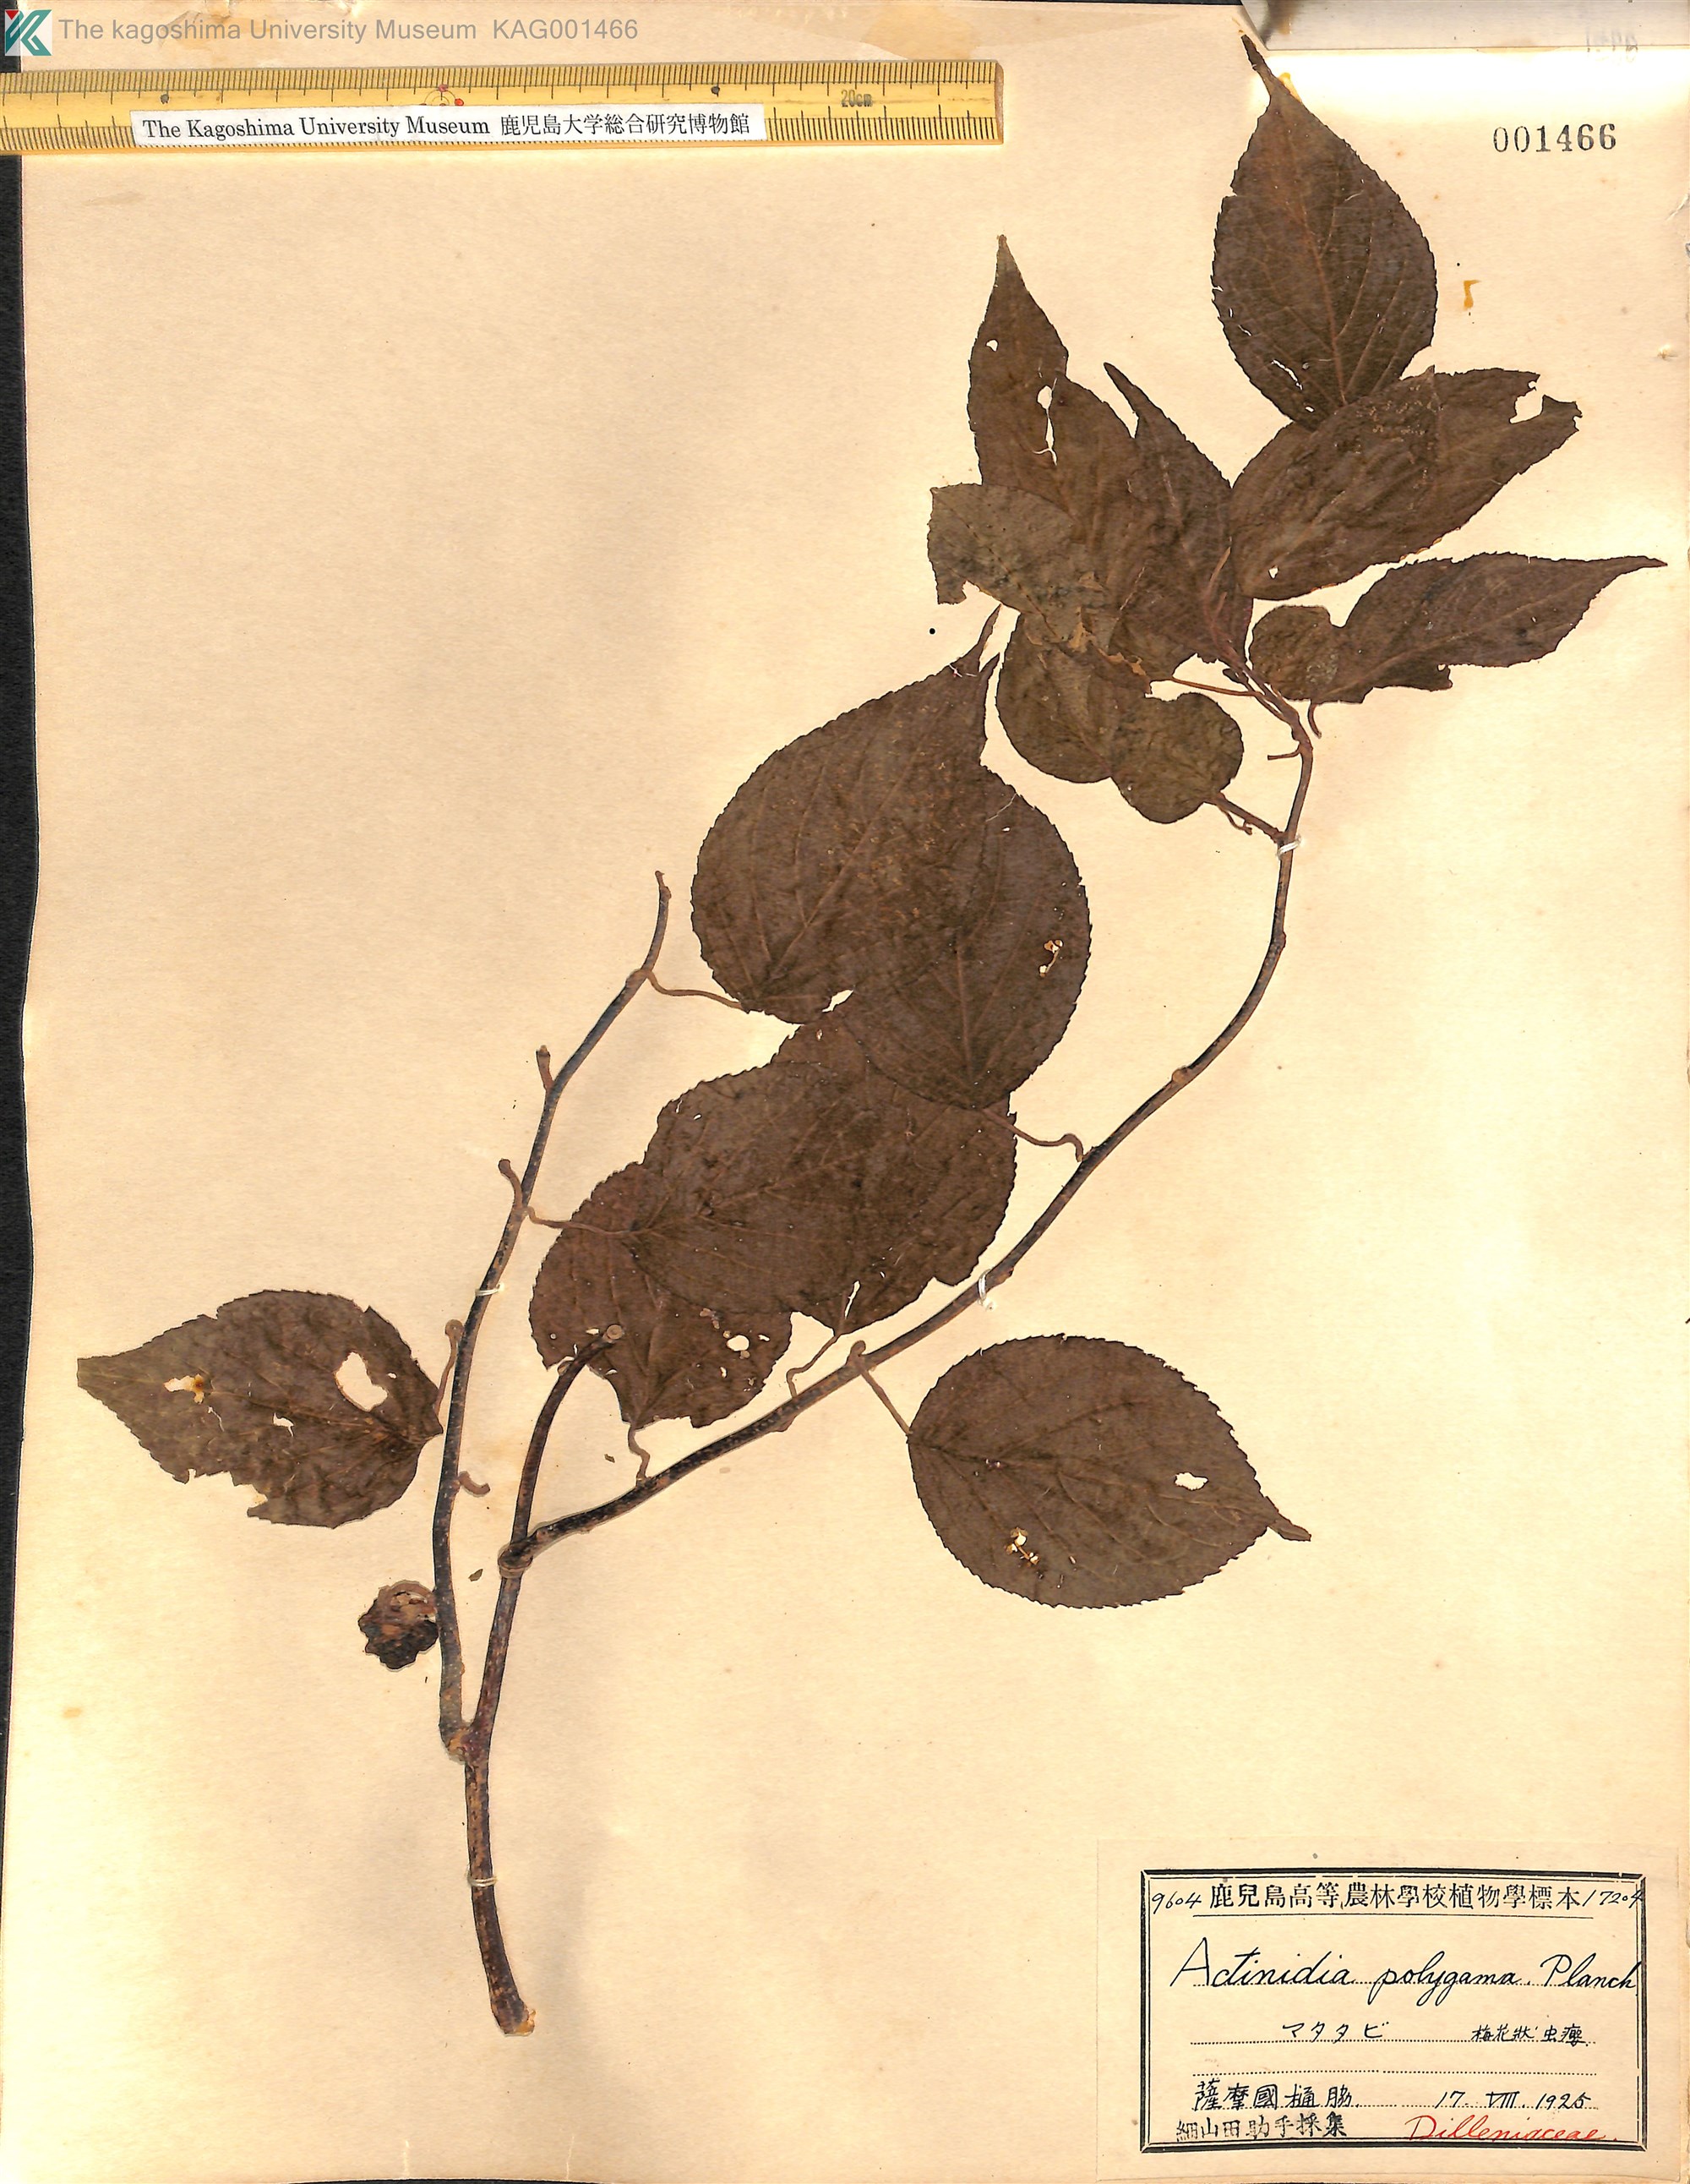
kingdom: Plantae
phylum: Tracheophyta
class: Magnoliopsida
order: Ericales
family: Actinidiaceae
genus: Actinidia
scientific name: Actinidia polygama
